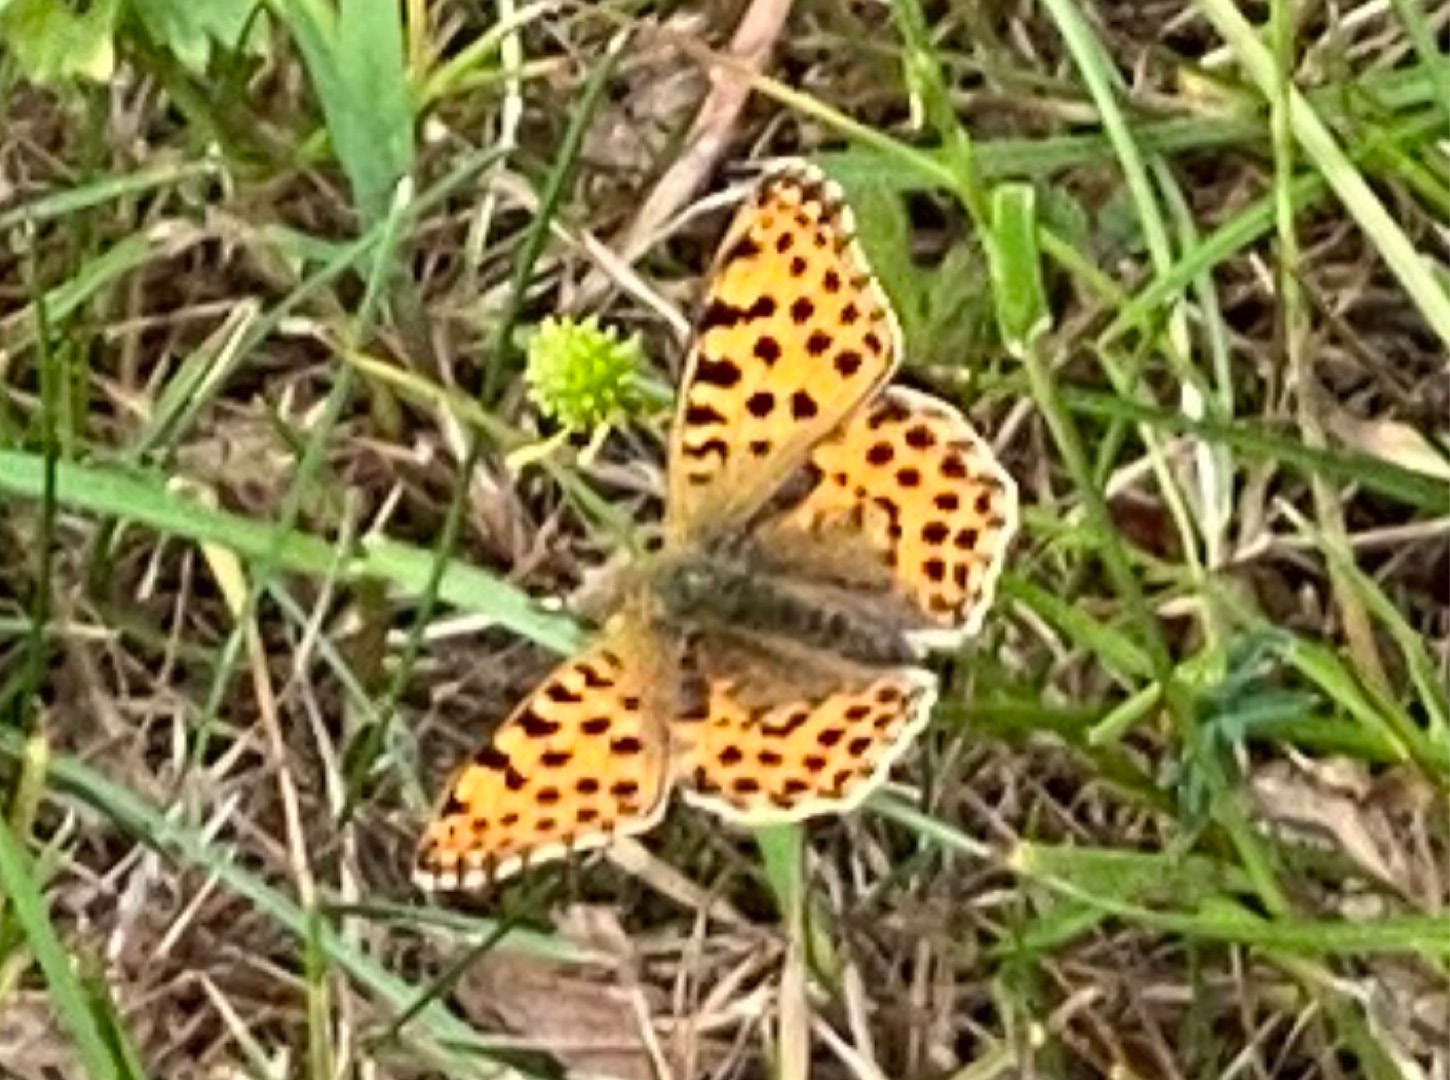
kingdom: Animalia
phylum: Arthropoda
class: Insecta
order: Lepidoptera
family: Nymphalidae
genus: Issoria
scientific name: Issoria lathonia
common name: Storplettet perlemorsommerfugl
